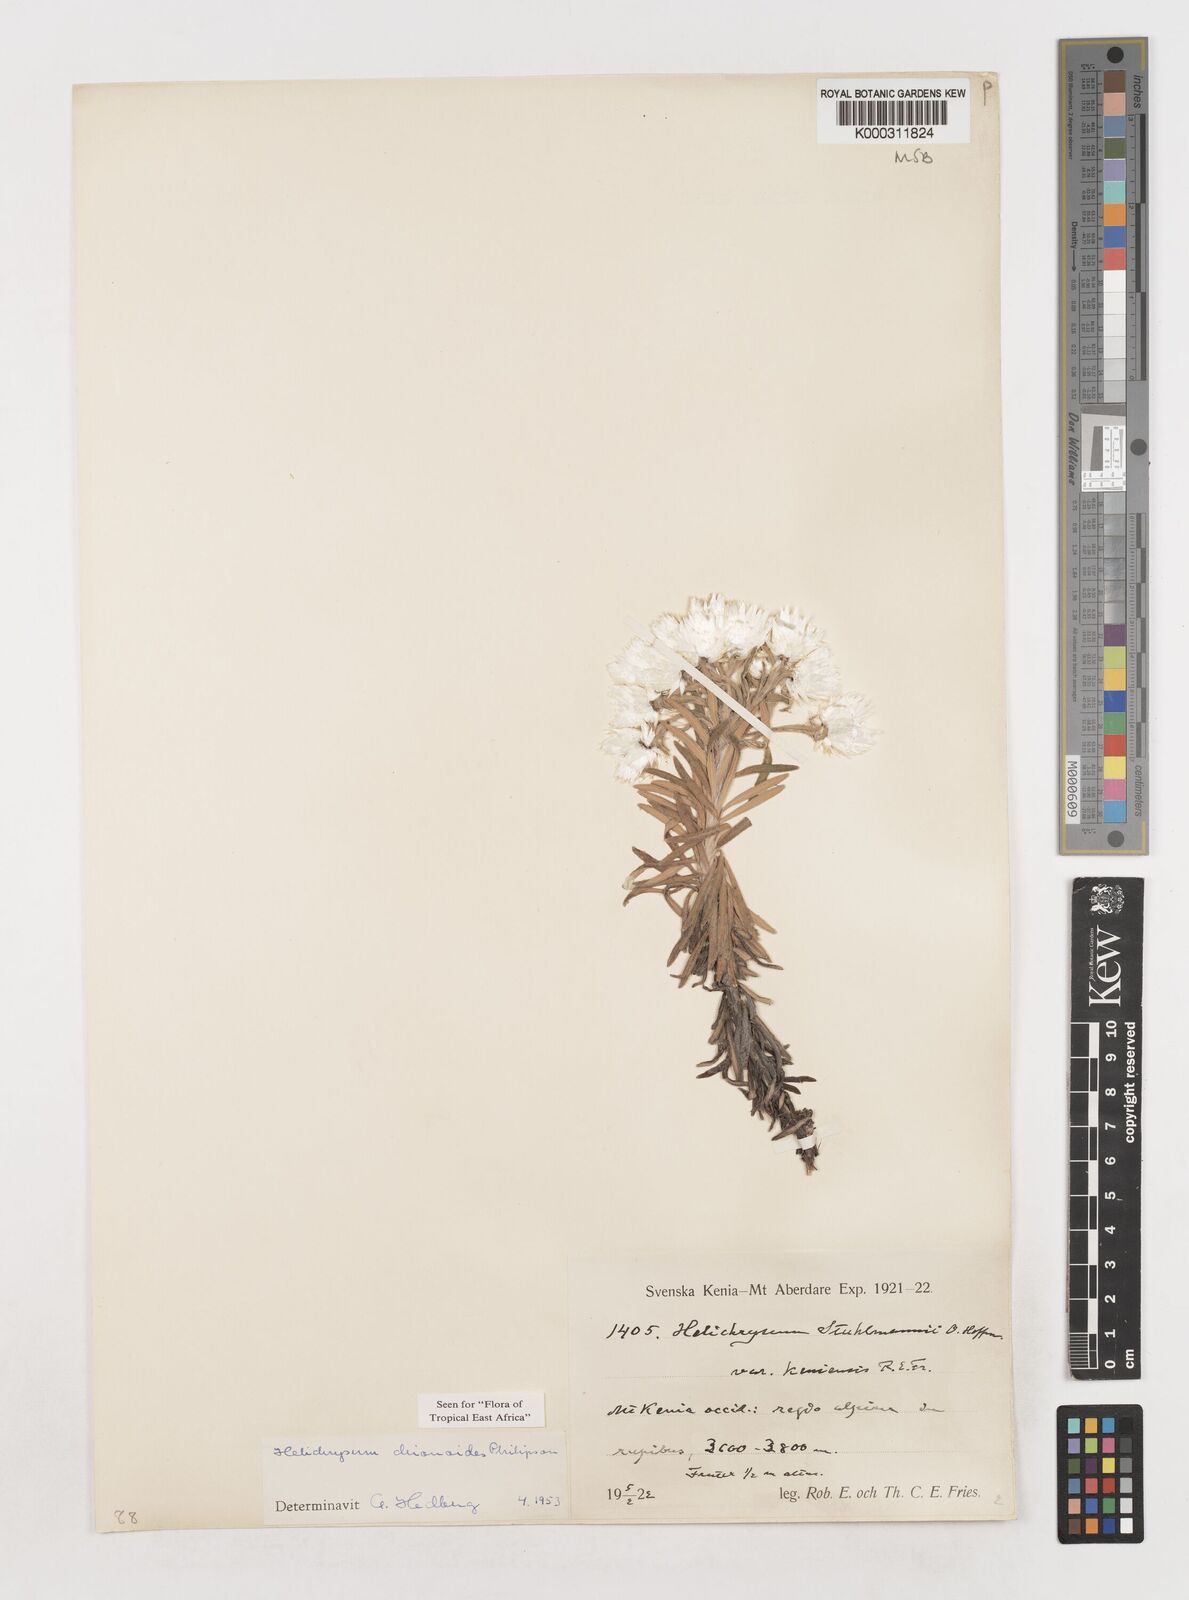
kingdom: Plantae
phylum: Tracheophyta
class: Magnoliopsida
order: Asterales
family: Asteraceae
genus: Helichrysum
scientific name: Helichrysum chionoides
